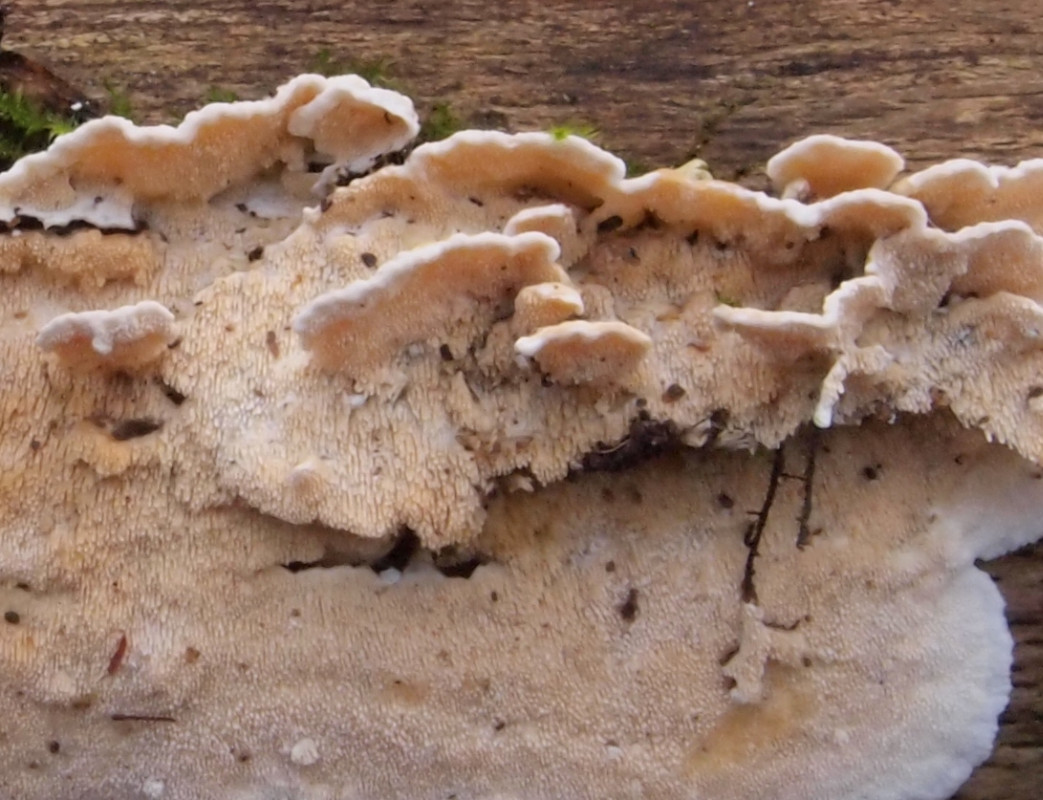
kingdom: Fungi
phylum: Basidiomycota
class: Agaricomycetes
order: Polyporales
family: Steccherinaceae
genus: Steccherinum
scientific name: Steccherinum ochraceum
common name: almindelig skønpig
